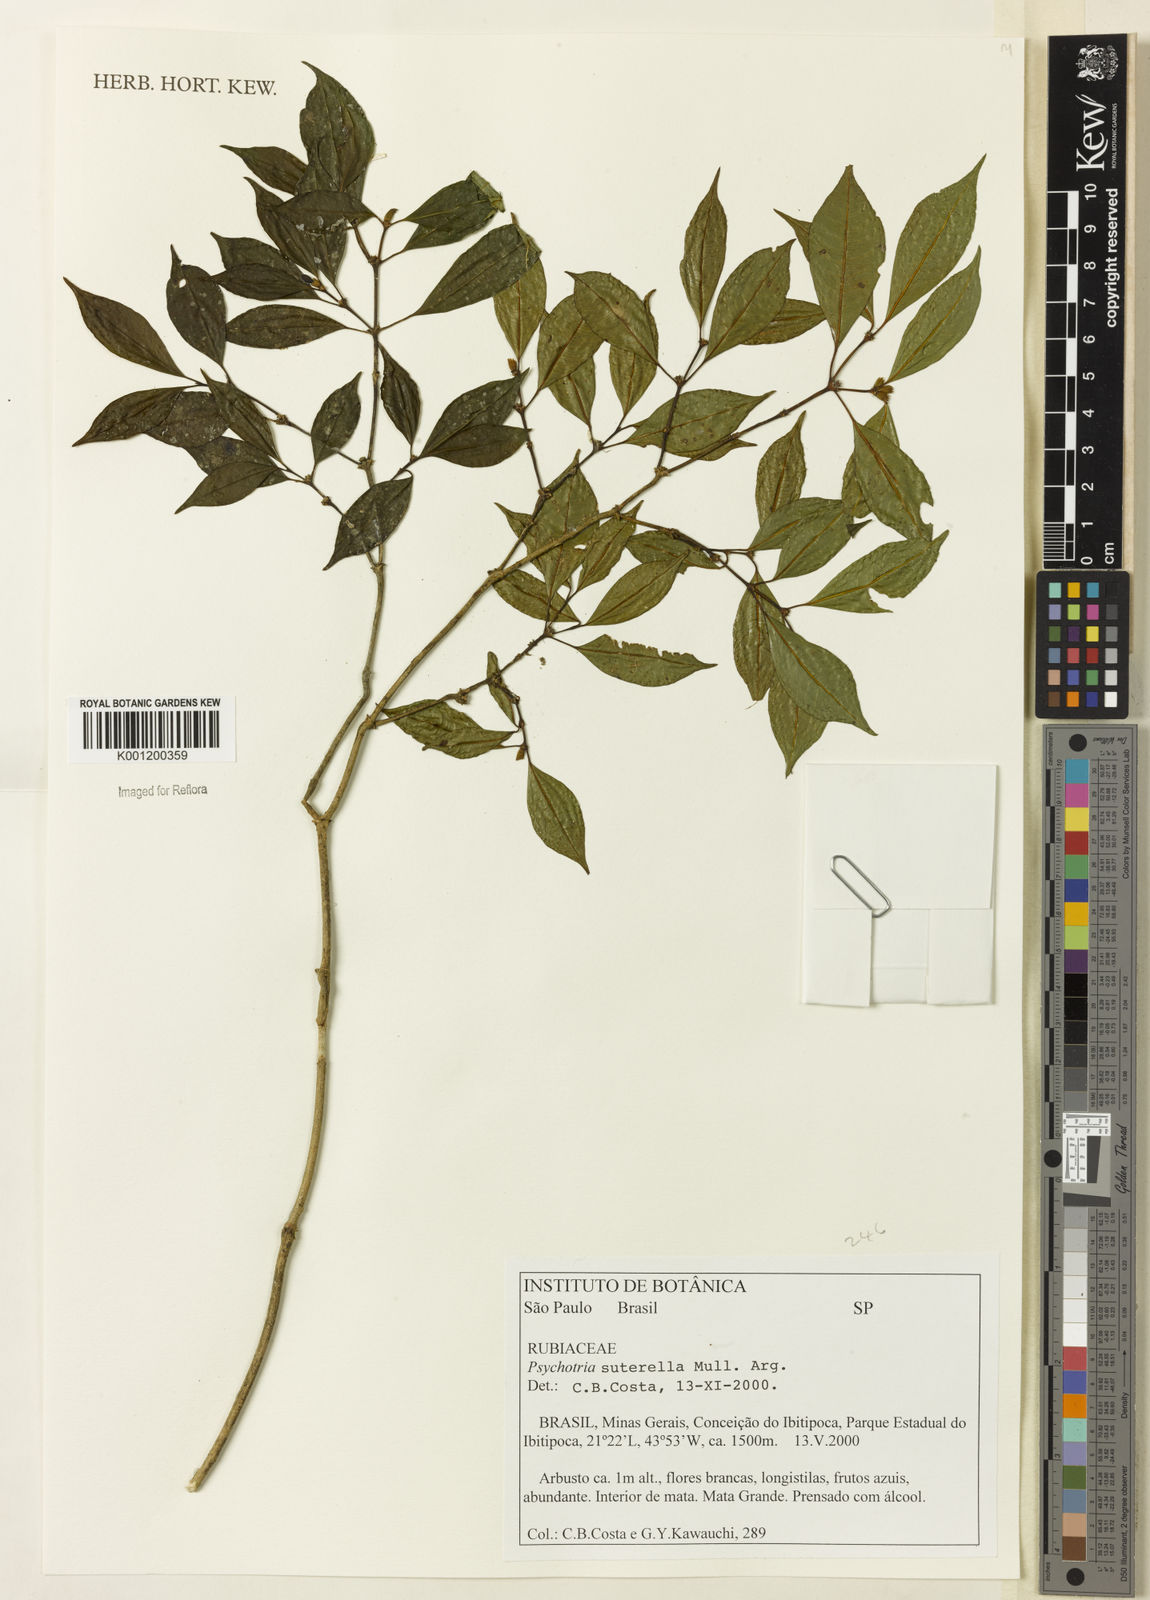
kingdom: Plantae
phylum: Tracheophyta
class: Magnoliopsida
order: Gentianales
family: Rubiaceae
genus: Psychotria
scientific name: Psychotria
